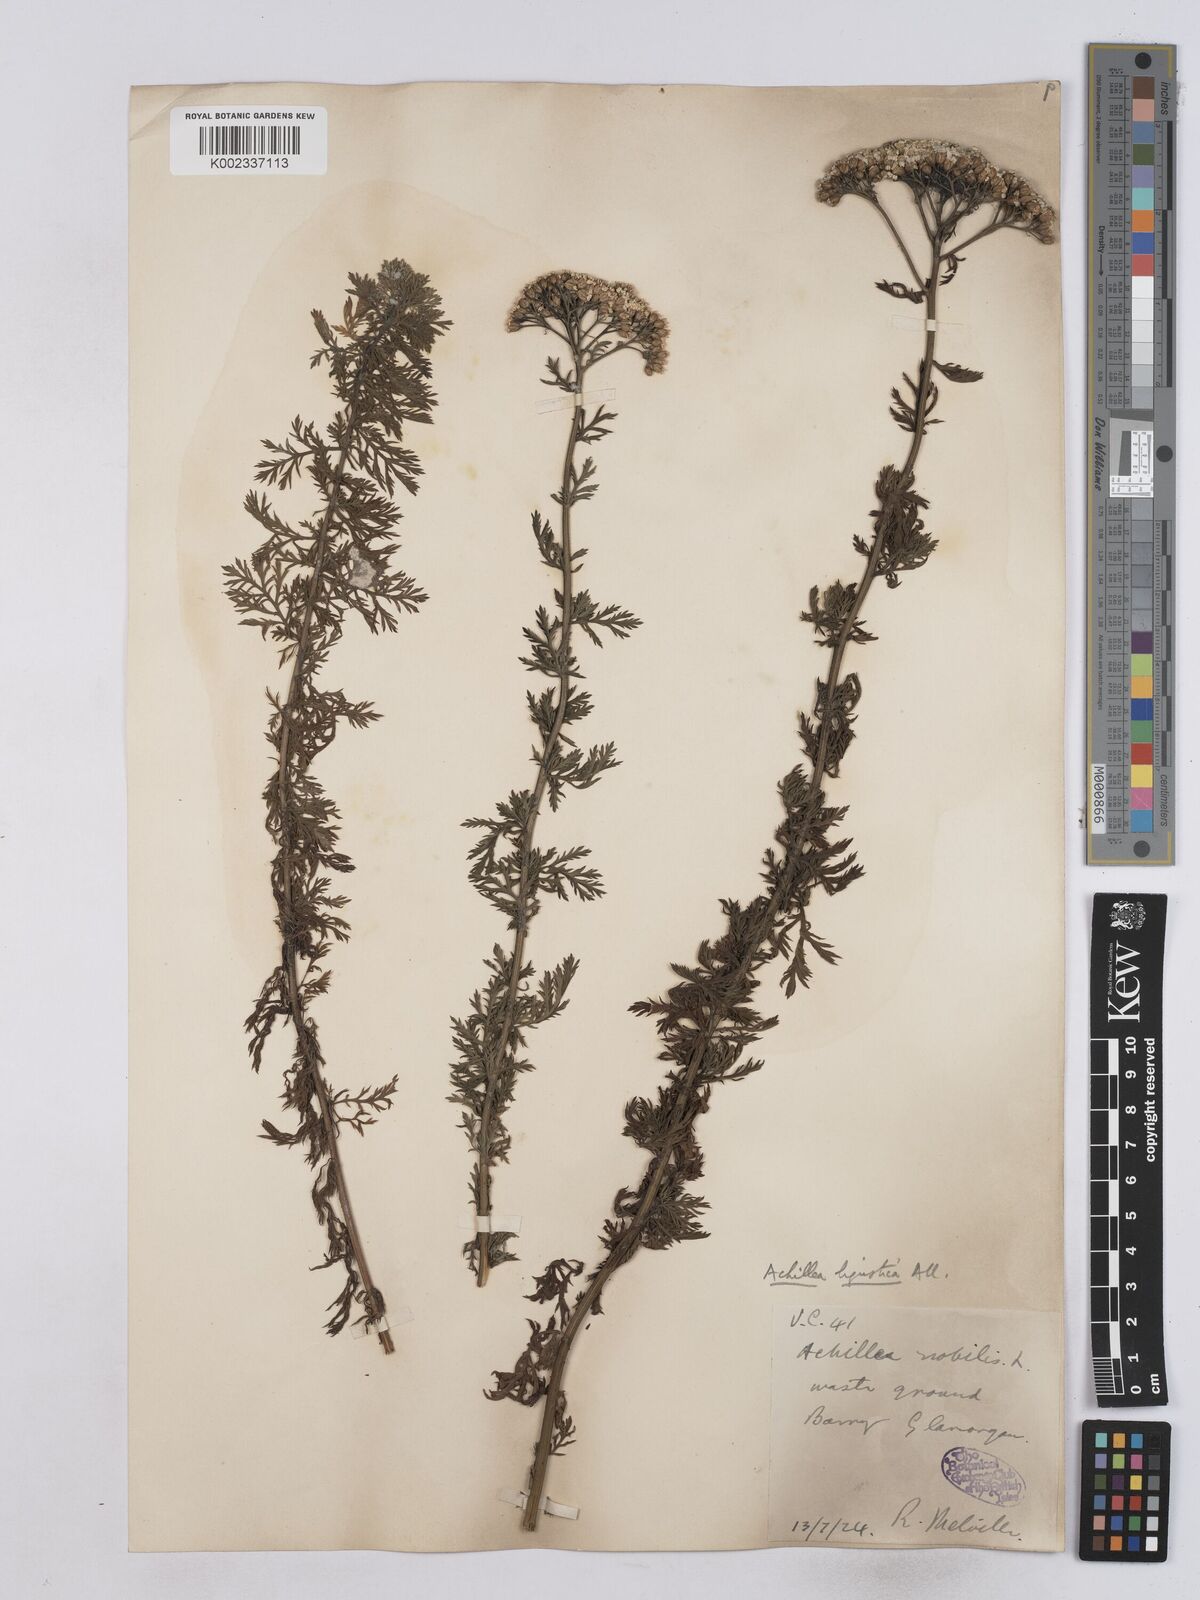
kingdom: Plantae
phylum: Tracheophyta
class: Magnoliopsida
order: Asterales
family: Asteraceae
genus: Achillea
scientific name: Achillea ligustica
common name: Southern yarrow
